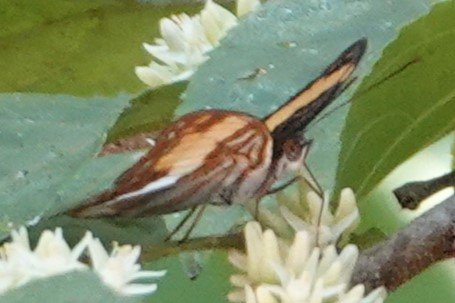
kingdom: Animalia
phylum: Arthropoda
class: Insecta
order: Lepidoptera
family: Nymphalidae
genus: Limenitis
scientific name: Limenitis delinita
